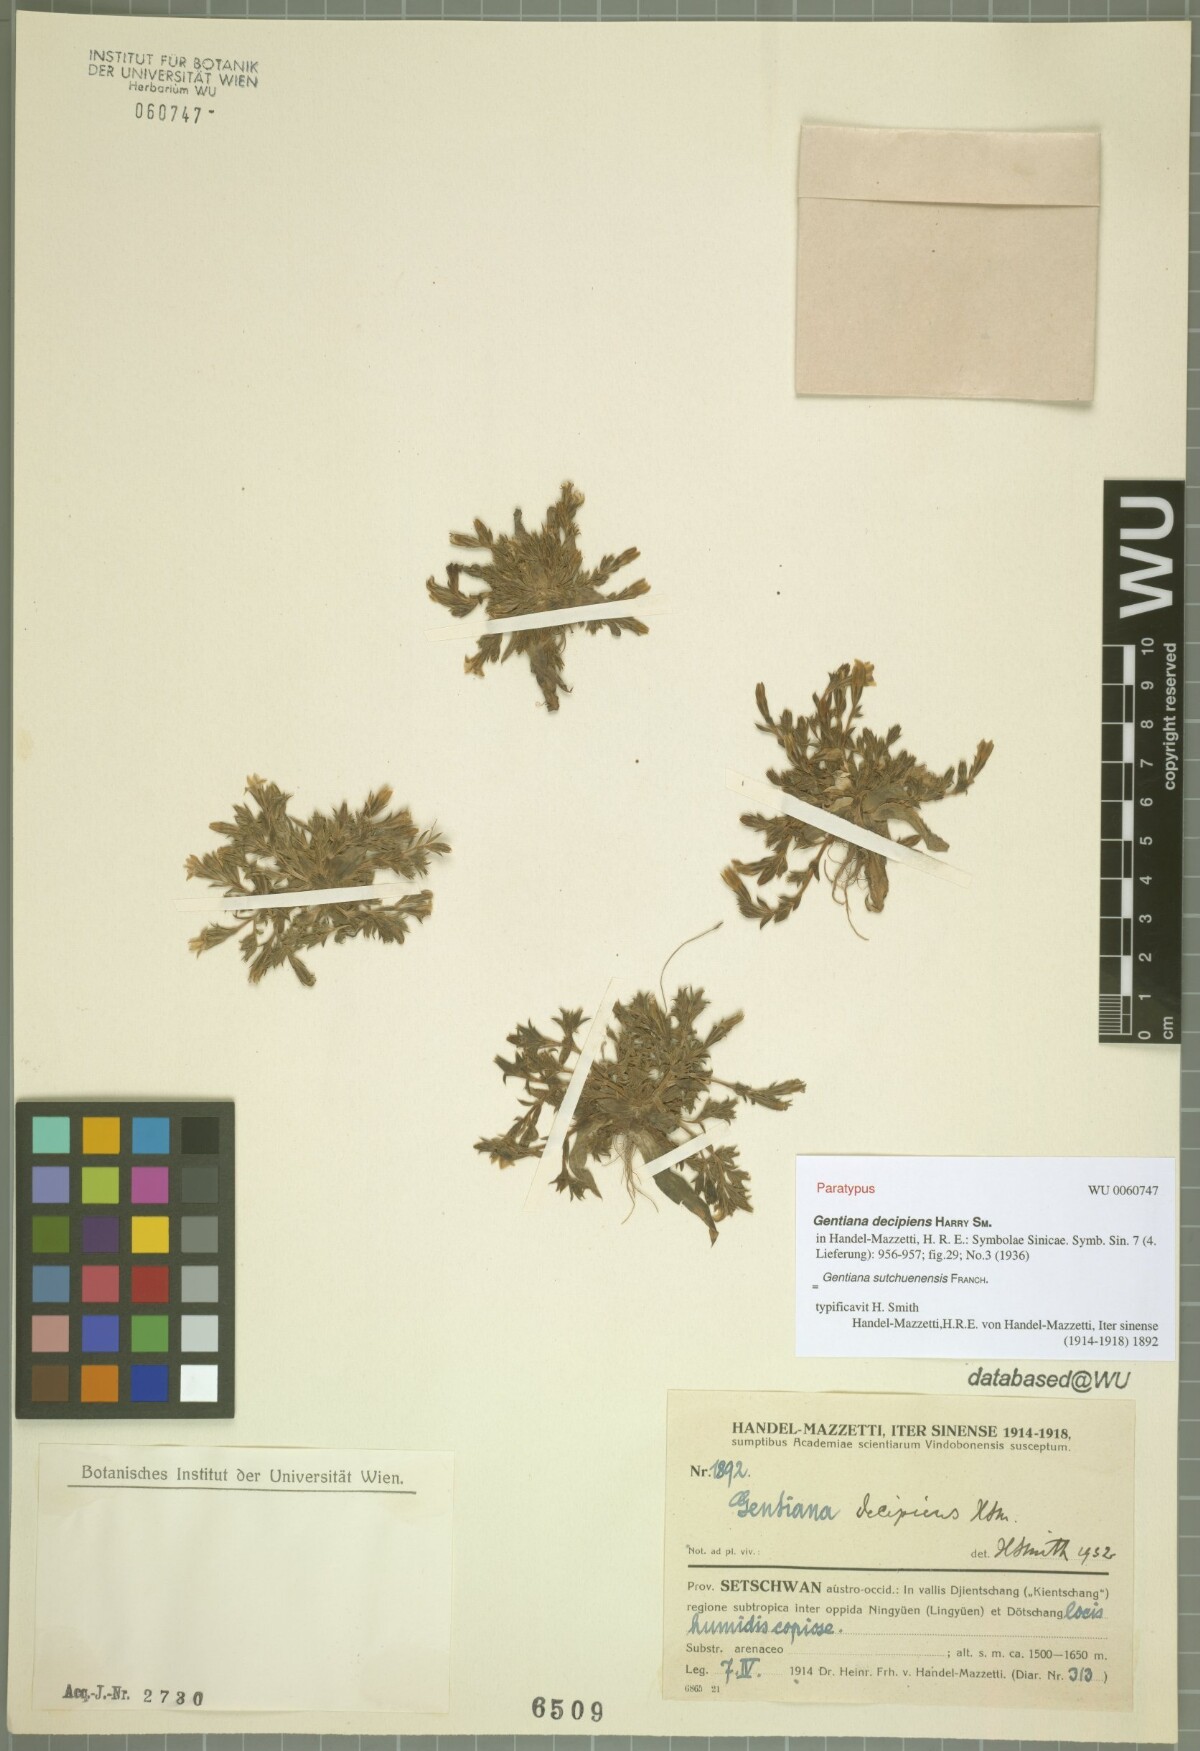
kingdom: Plantae
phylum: Tracheophyta
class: Magnoliopsida
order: Gentianales
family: Gentianaceae
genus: Gentiana
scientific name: Gentiana sutchuenensis
